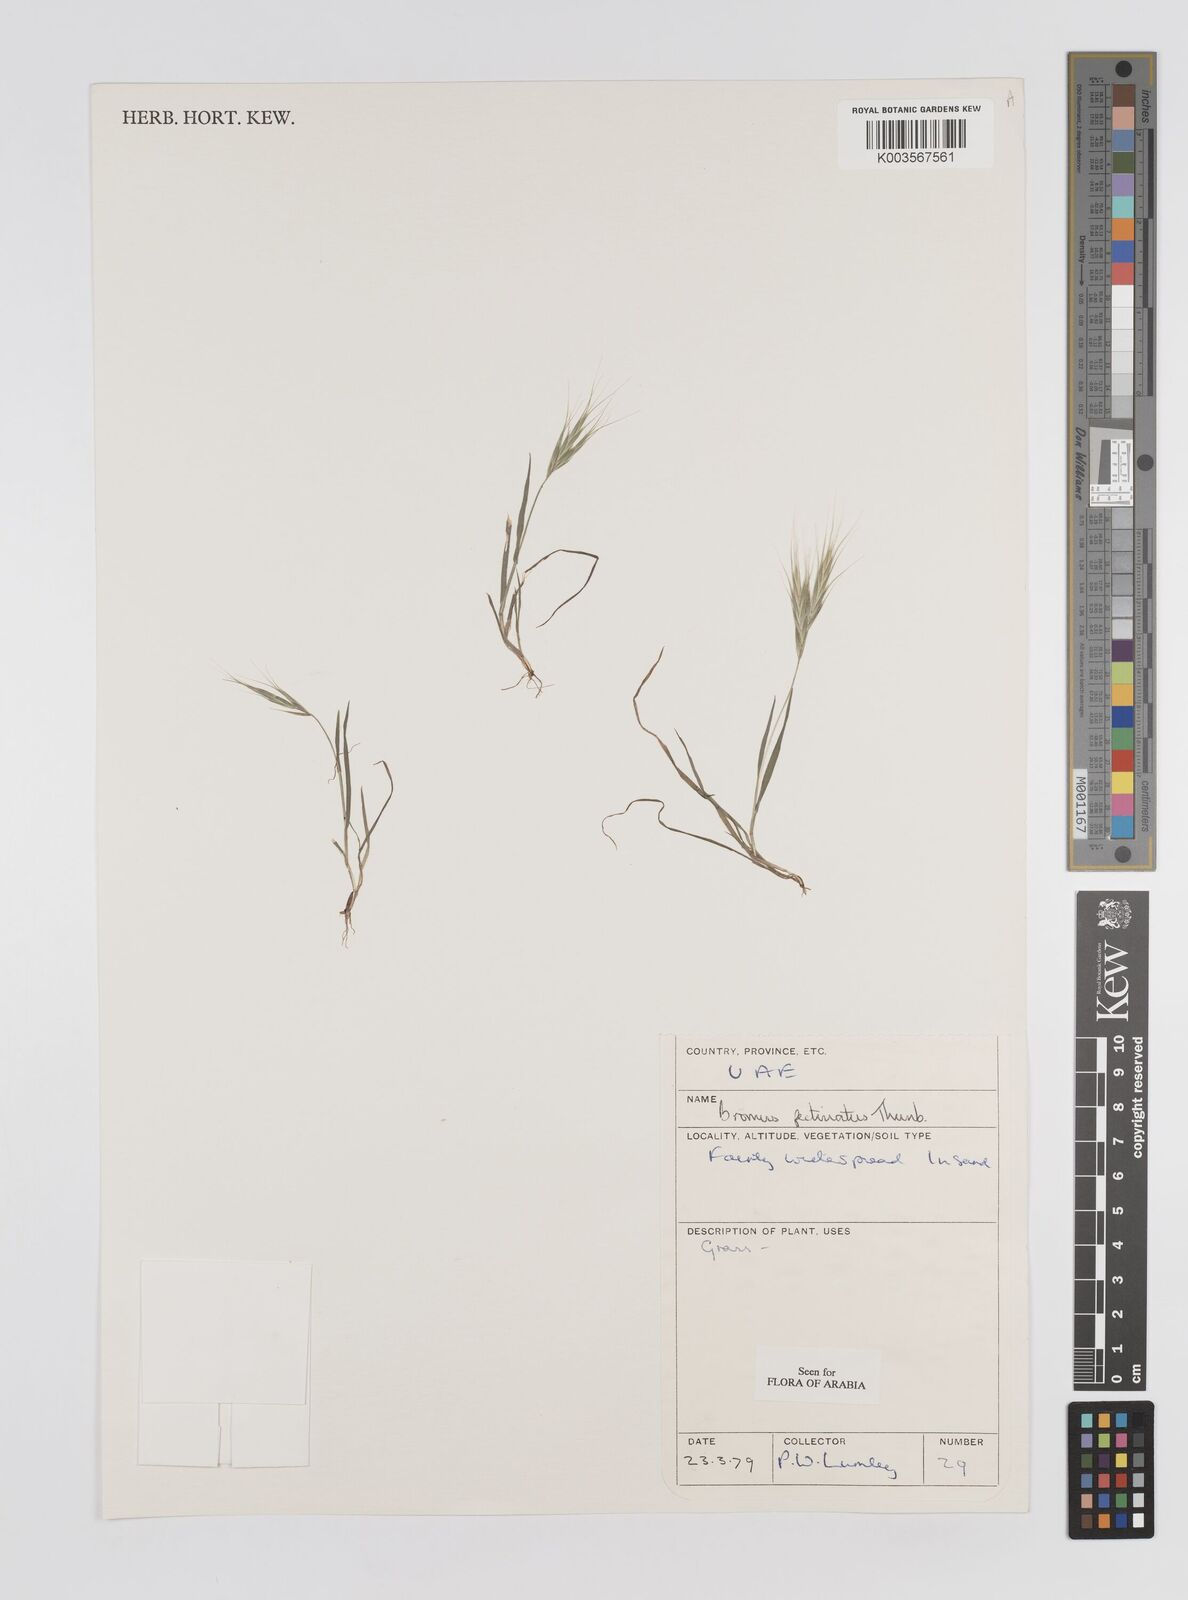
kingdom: Plantae
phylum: Tracheophyta
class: Liliopsida
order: Poales
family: Poaceae
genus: Bromus
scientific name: Bromus pectinatus
